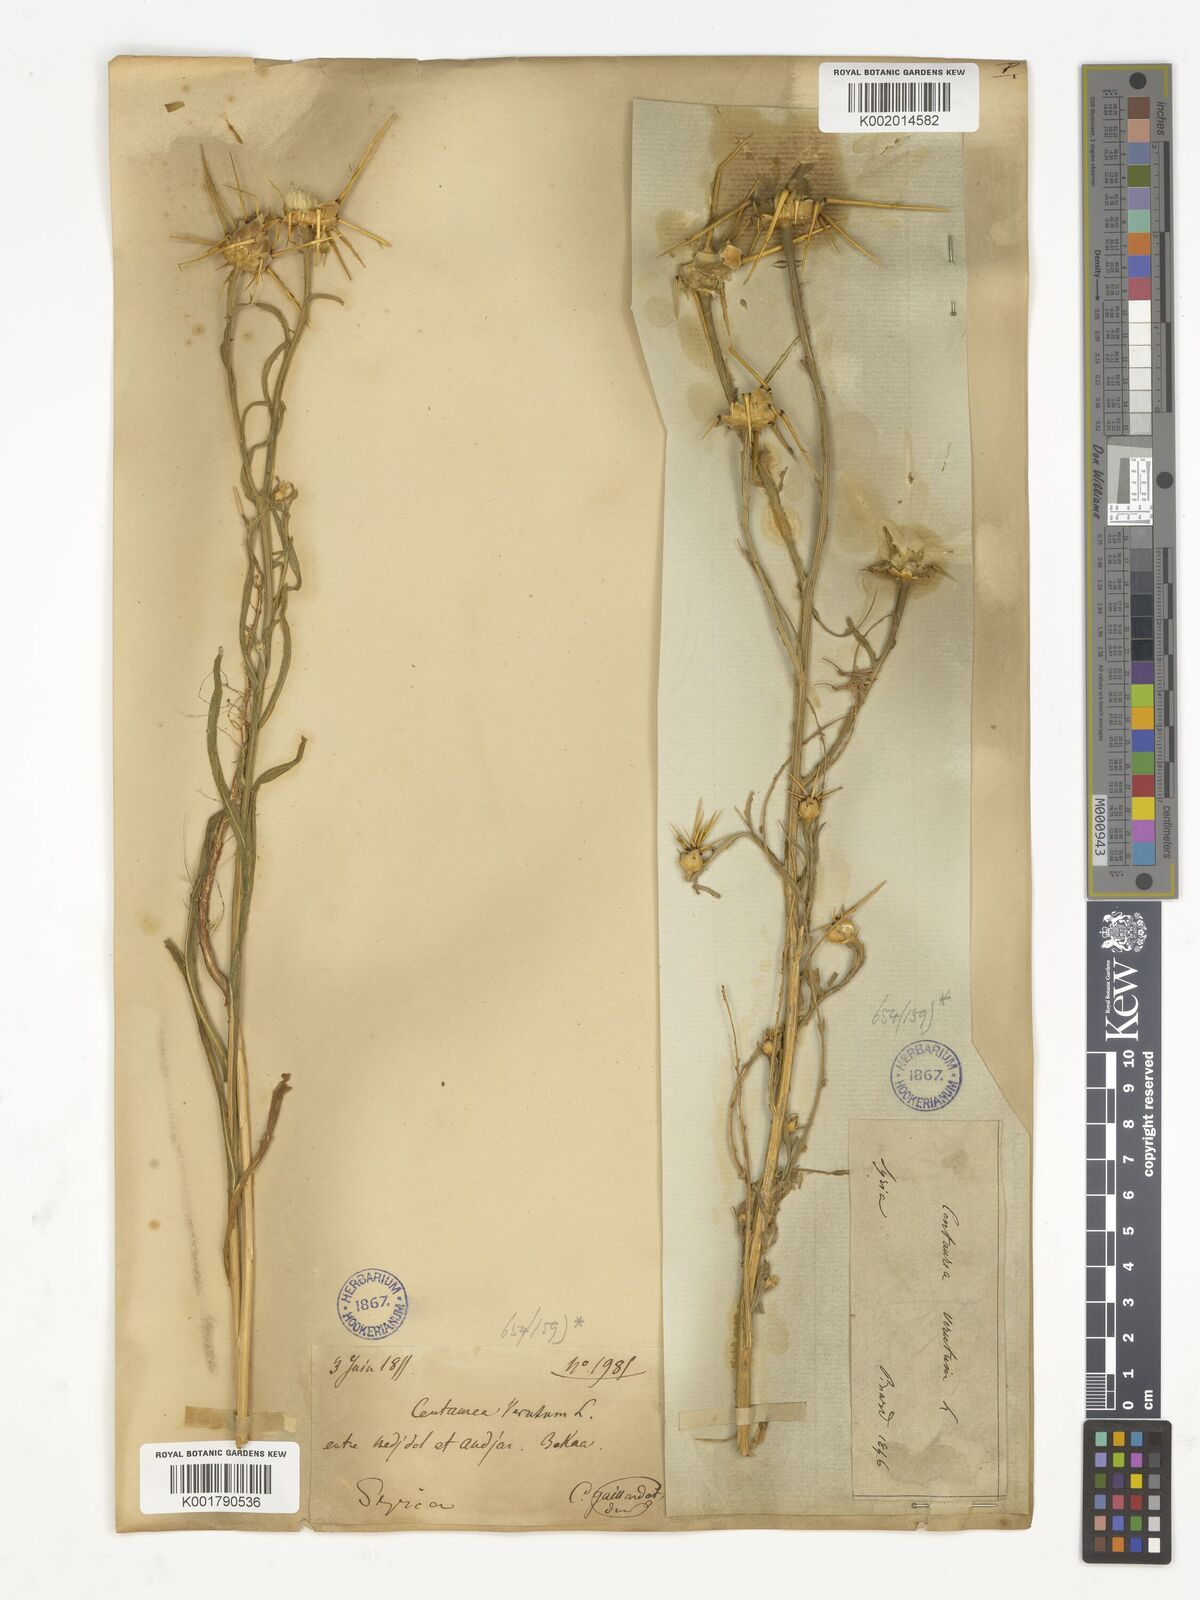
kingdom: Plantae
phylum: Tracheophyta
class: Magnoliopsida
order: Asterales
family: Asteraceae
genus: Centaurea
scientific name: Centaurea verutum
